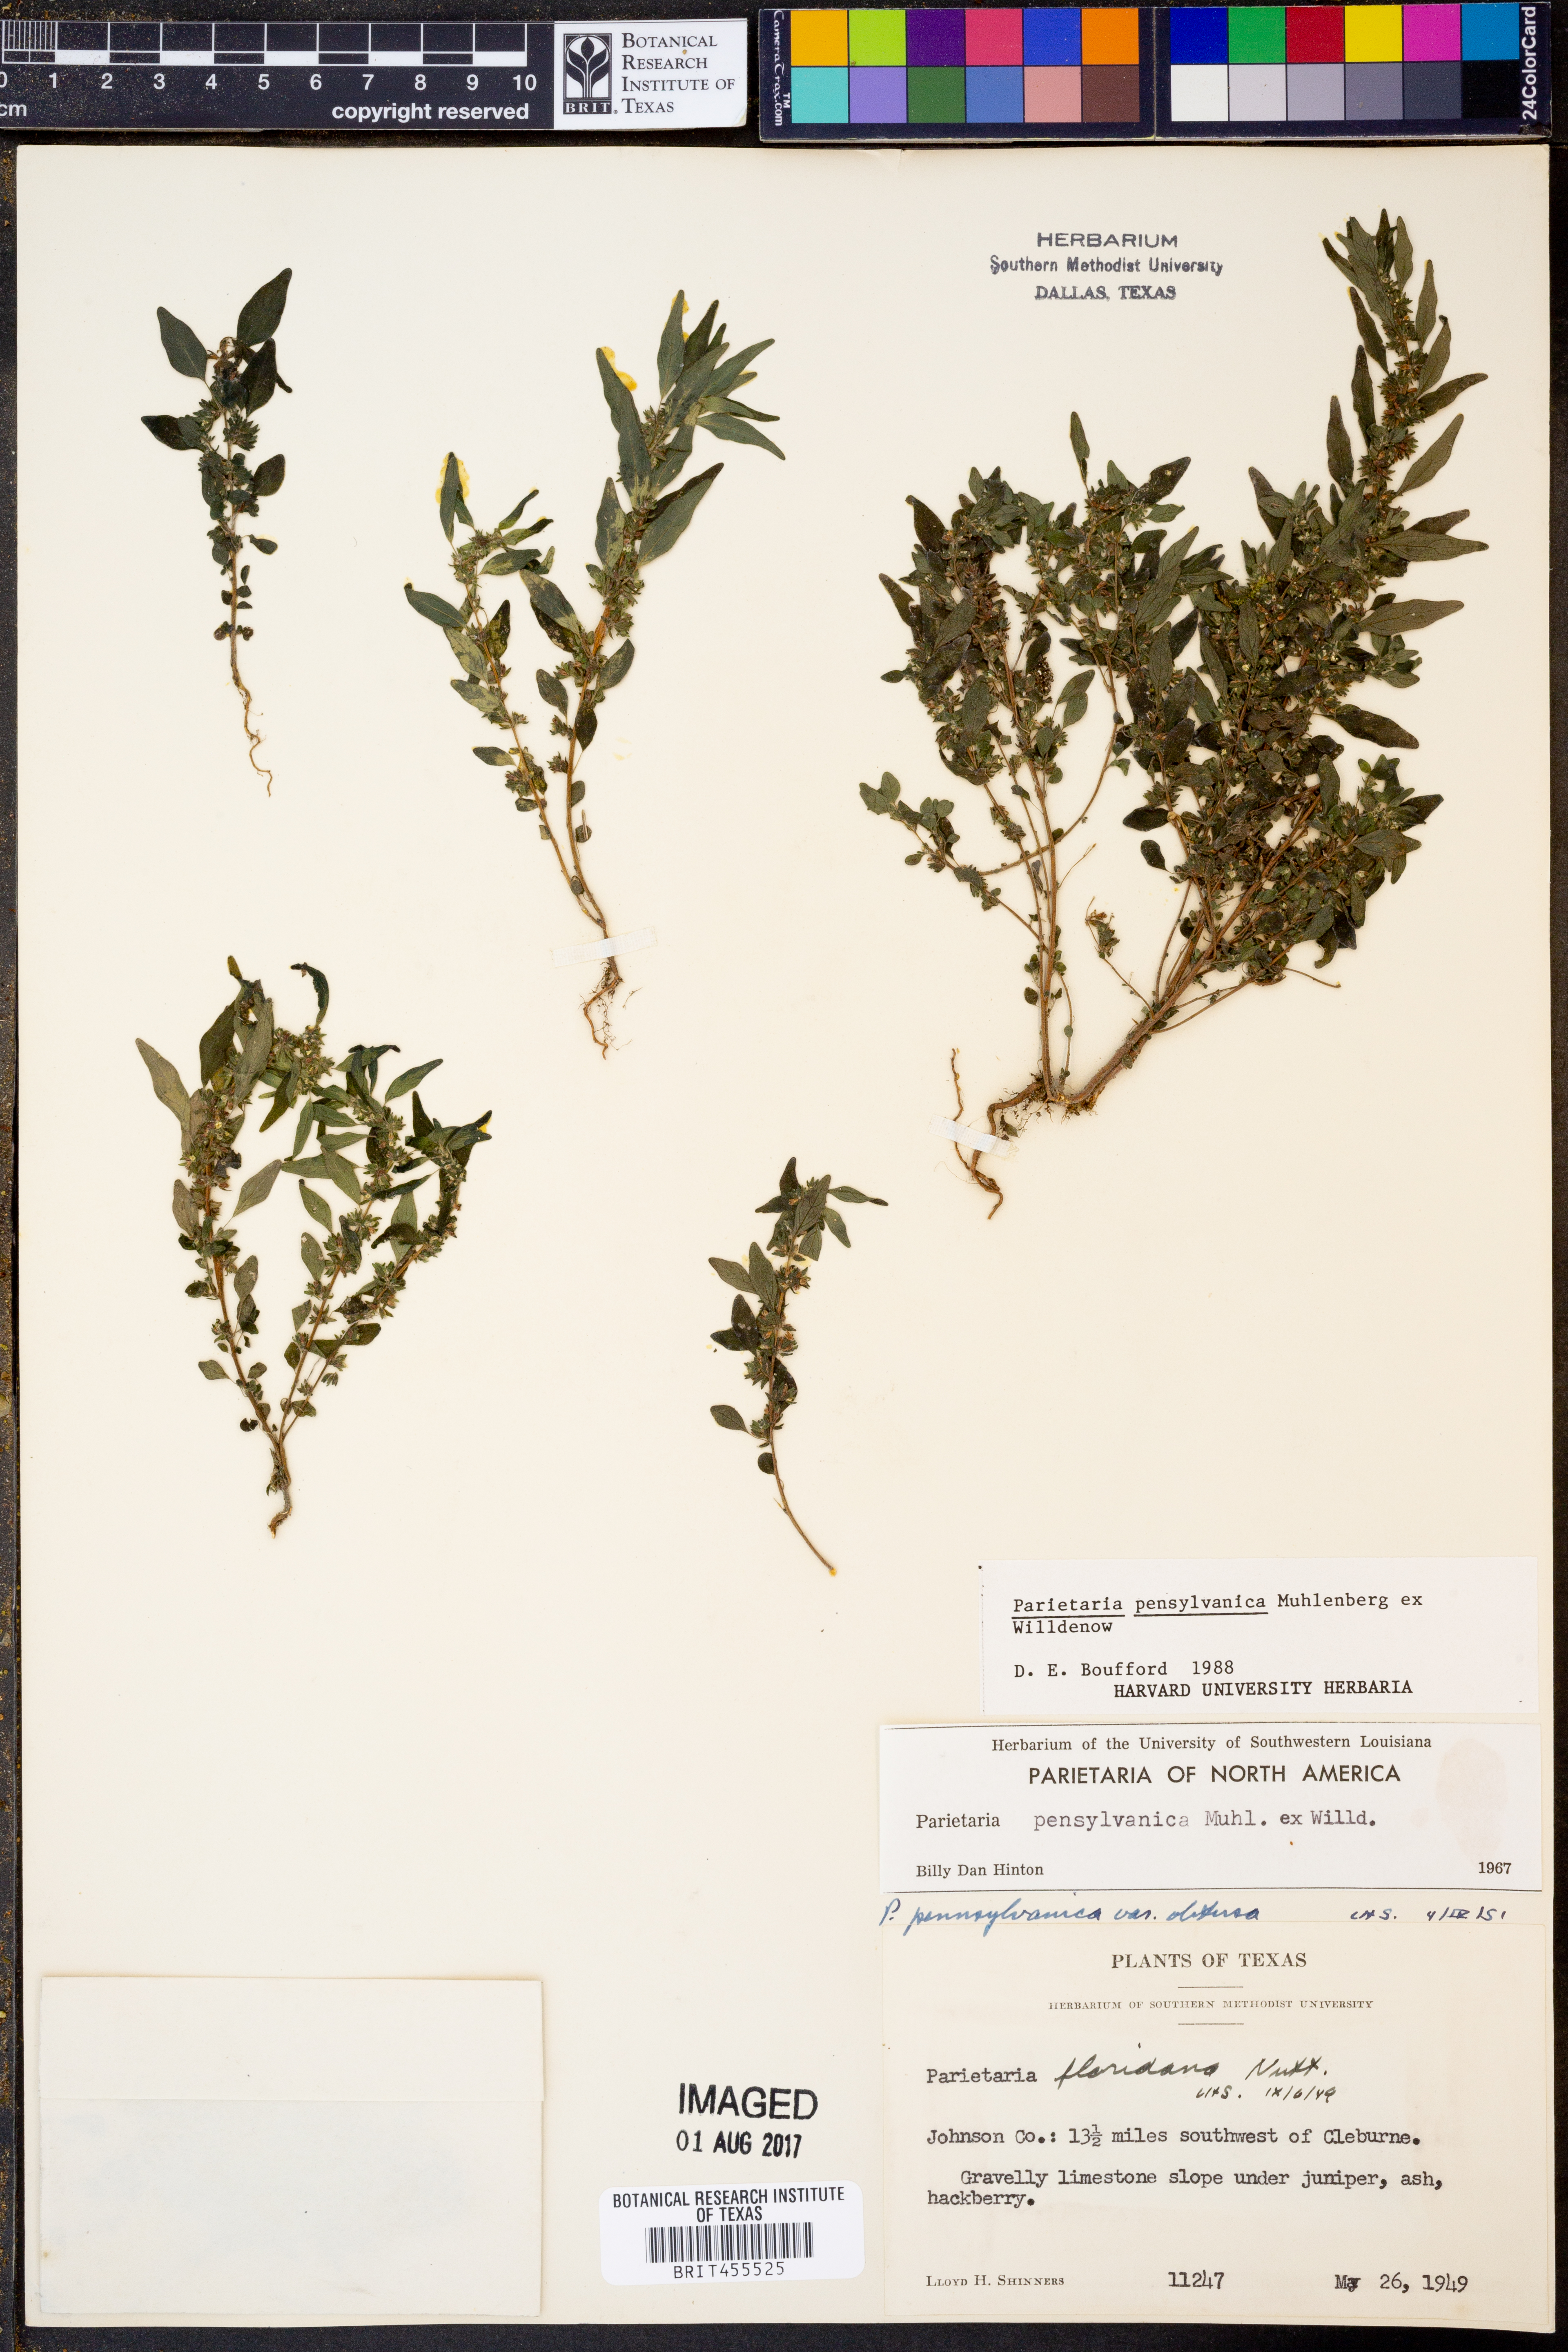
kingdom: Plantae
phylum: Tracheophyta
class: Magnoliopsida
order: Rosales
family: Urticaceae
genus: Parietaria
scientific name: Parietaria pensylvanica
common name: Pennsylvania pellitory
